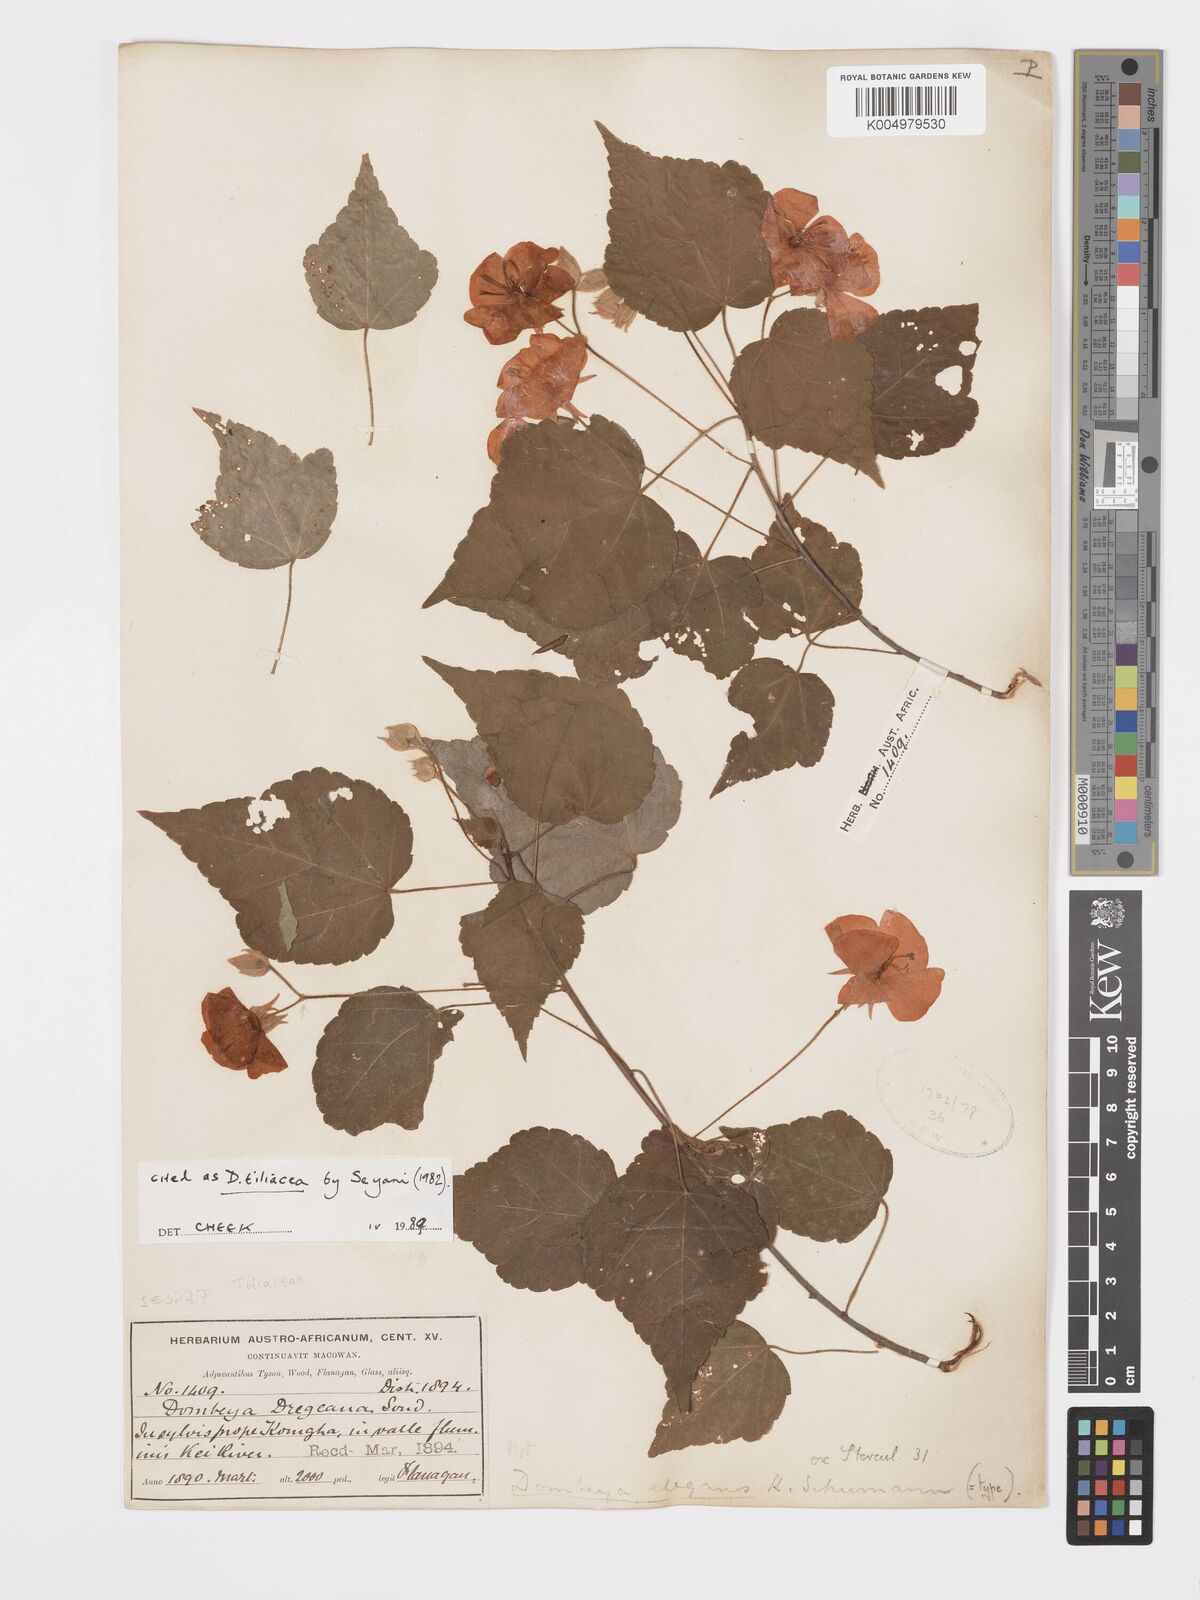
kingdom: Plantae
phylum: Tracheophyta
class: Magnoliopsida
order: Malvales
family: Malvaceae
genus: Dombeya
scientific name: Dombeya tiliacea
